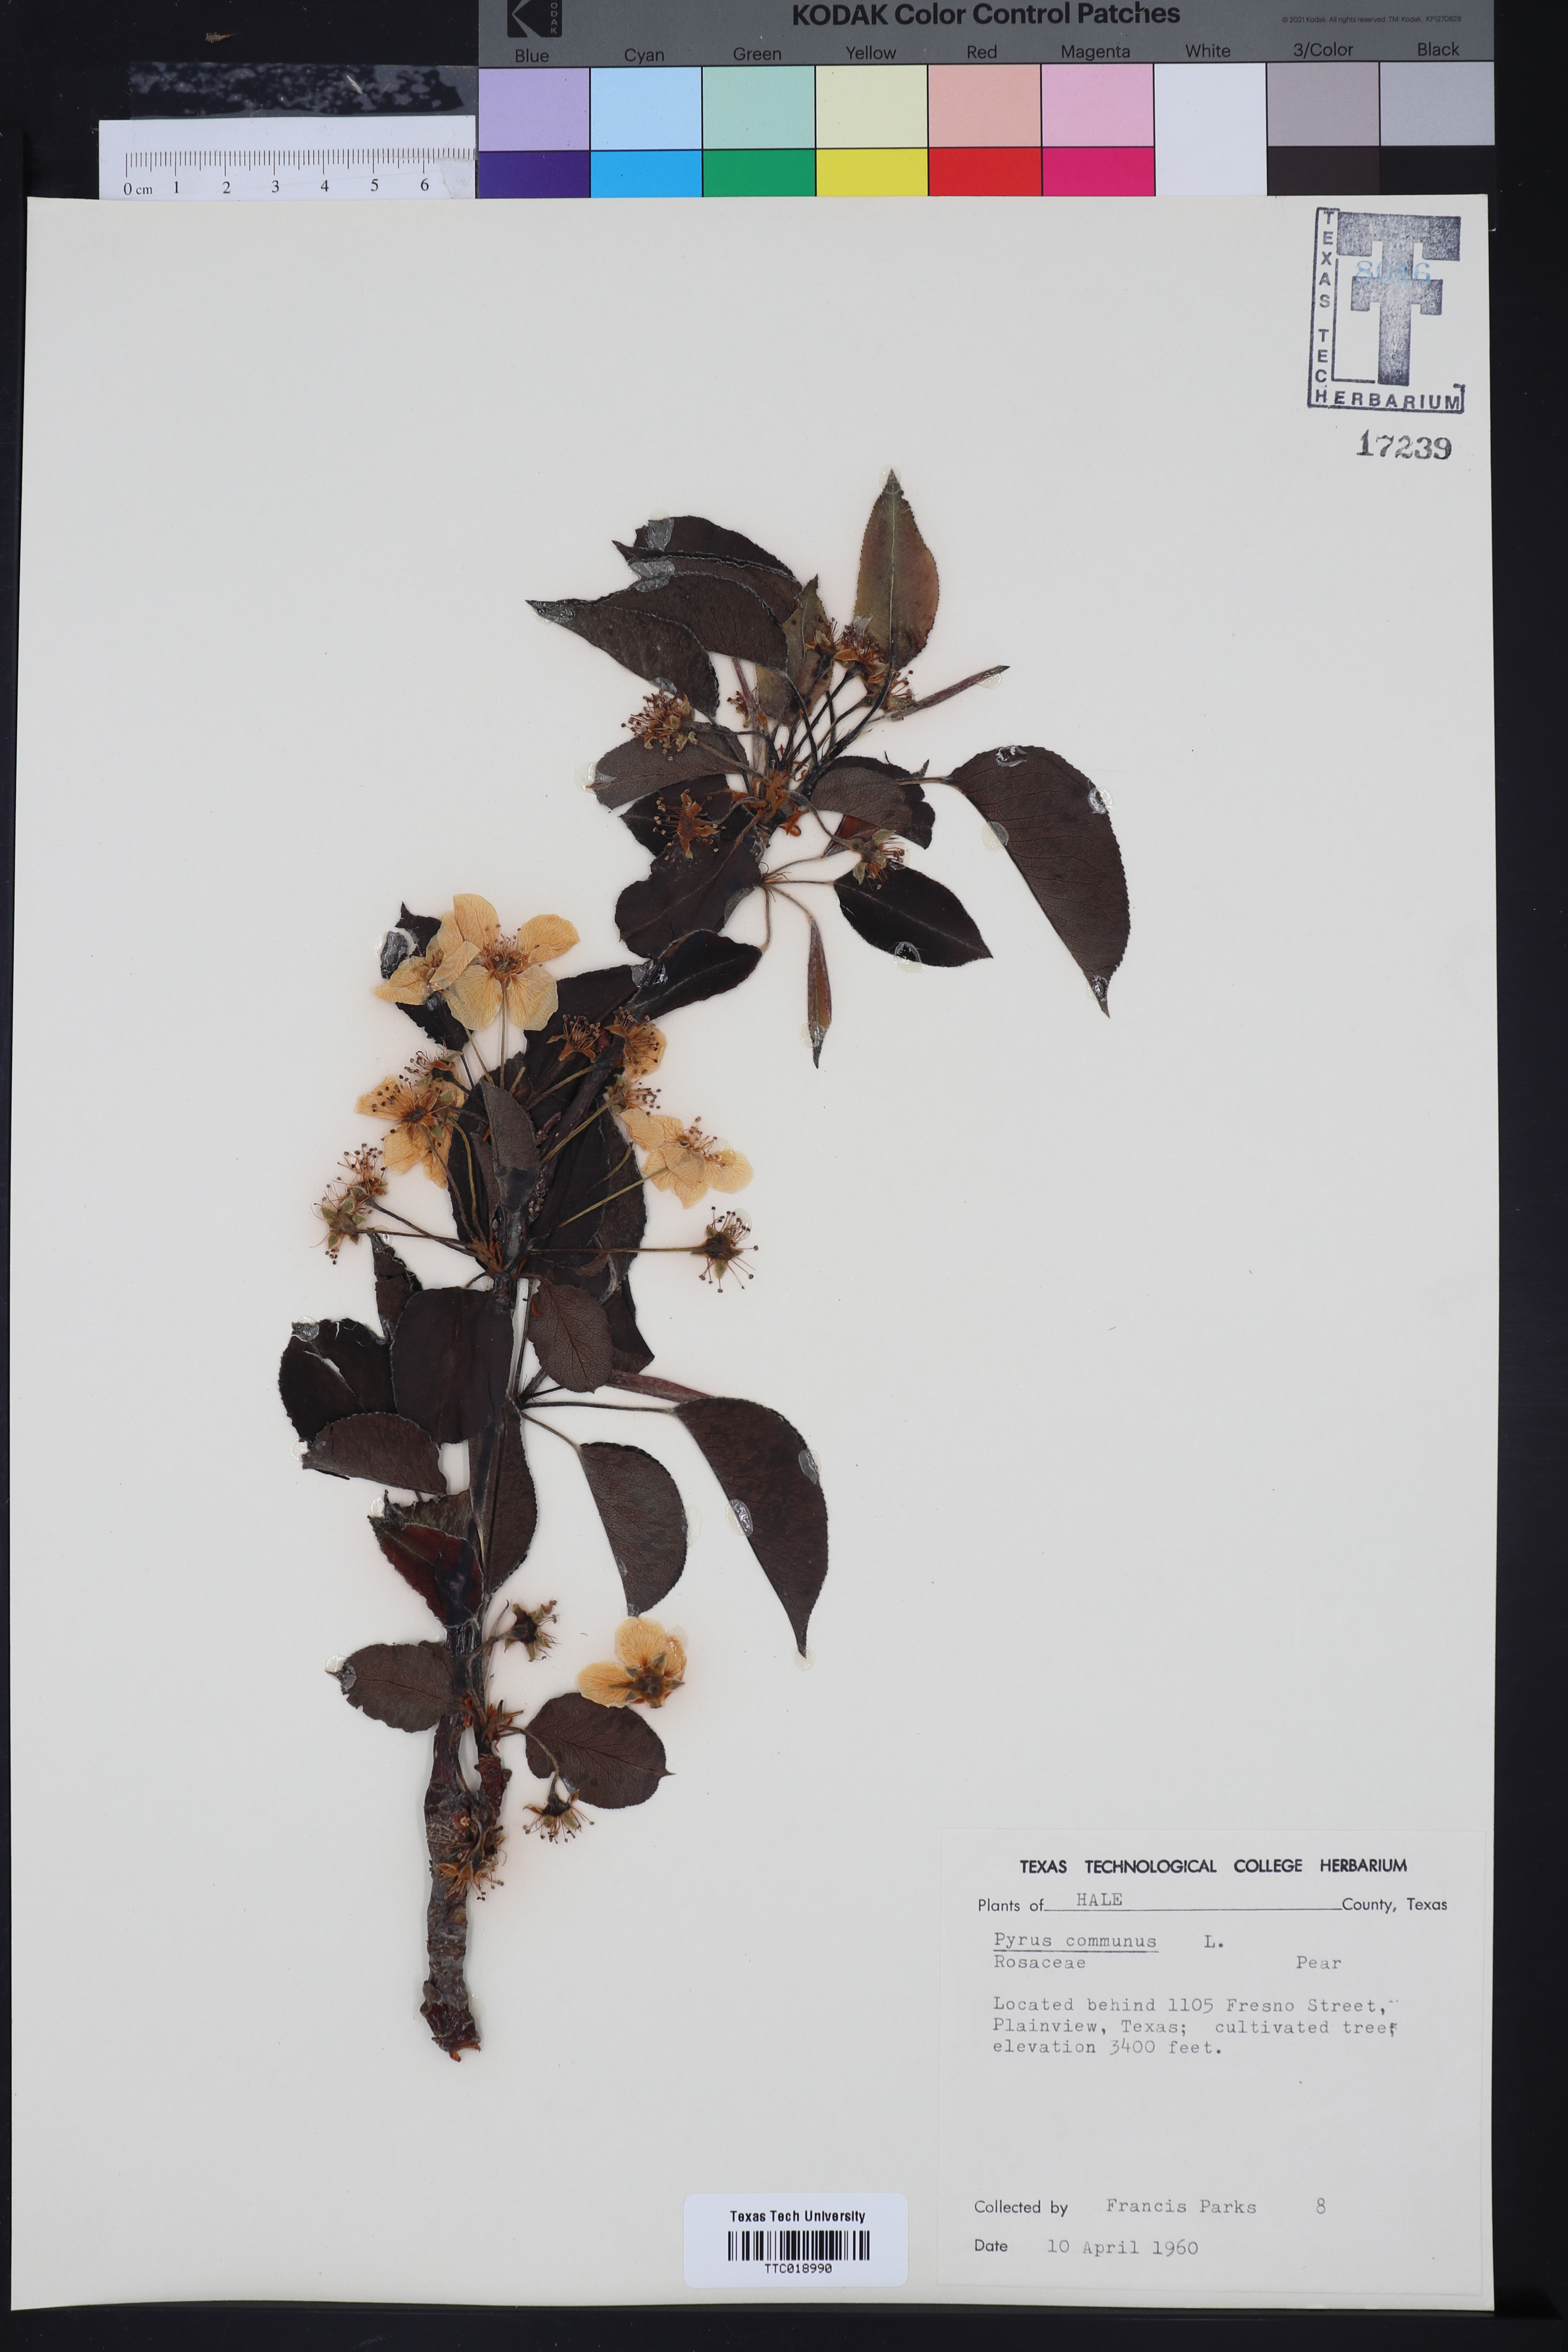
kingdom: Plantae
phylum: Tracheophyta
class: Magnoliopsida
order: Rosales
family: Rosaceae
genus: Pyrus
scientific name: Pyrus communis
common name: Pear
